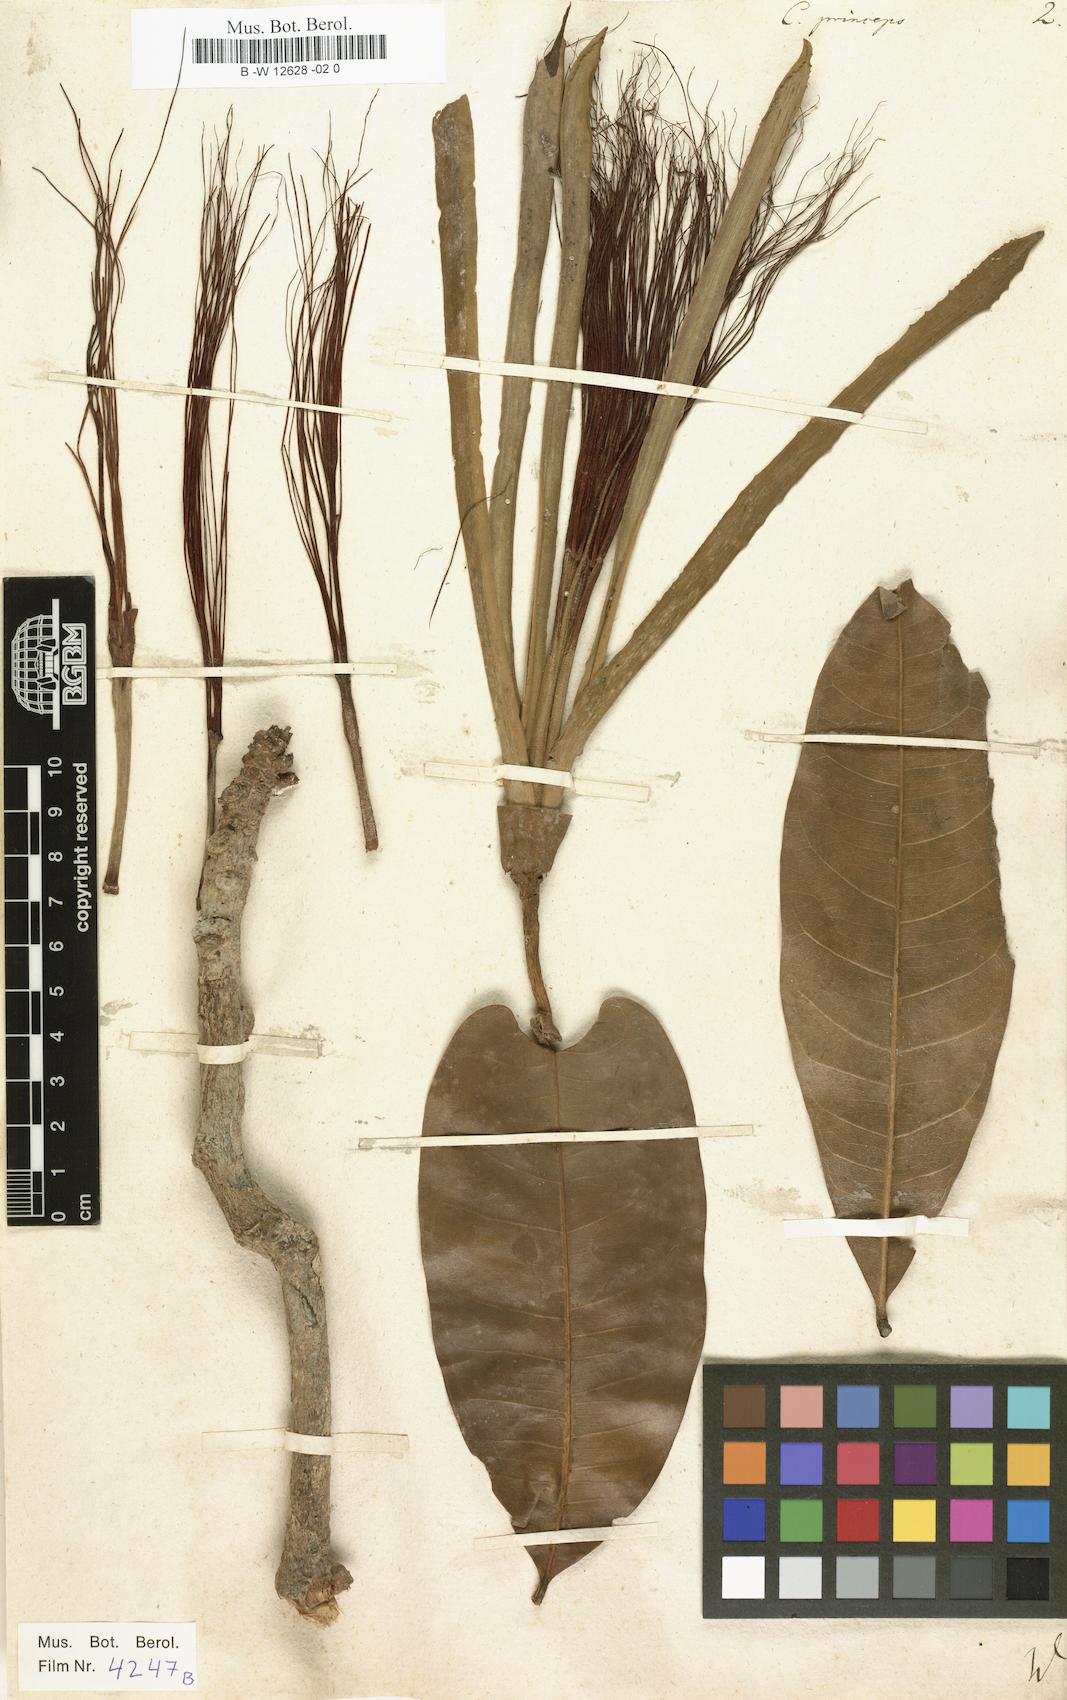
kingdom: Plantae
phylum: Tracheophyta
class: Magnoliopsida
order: Malvales
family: Malvaceae
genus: Pachira
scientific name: Pachira aquatica
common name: Provision-tree
